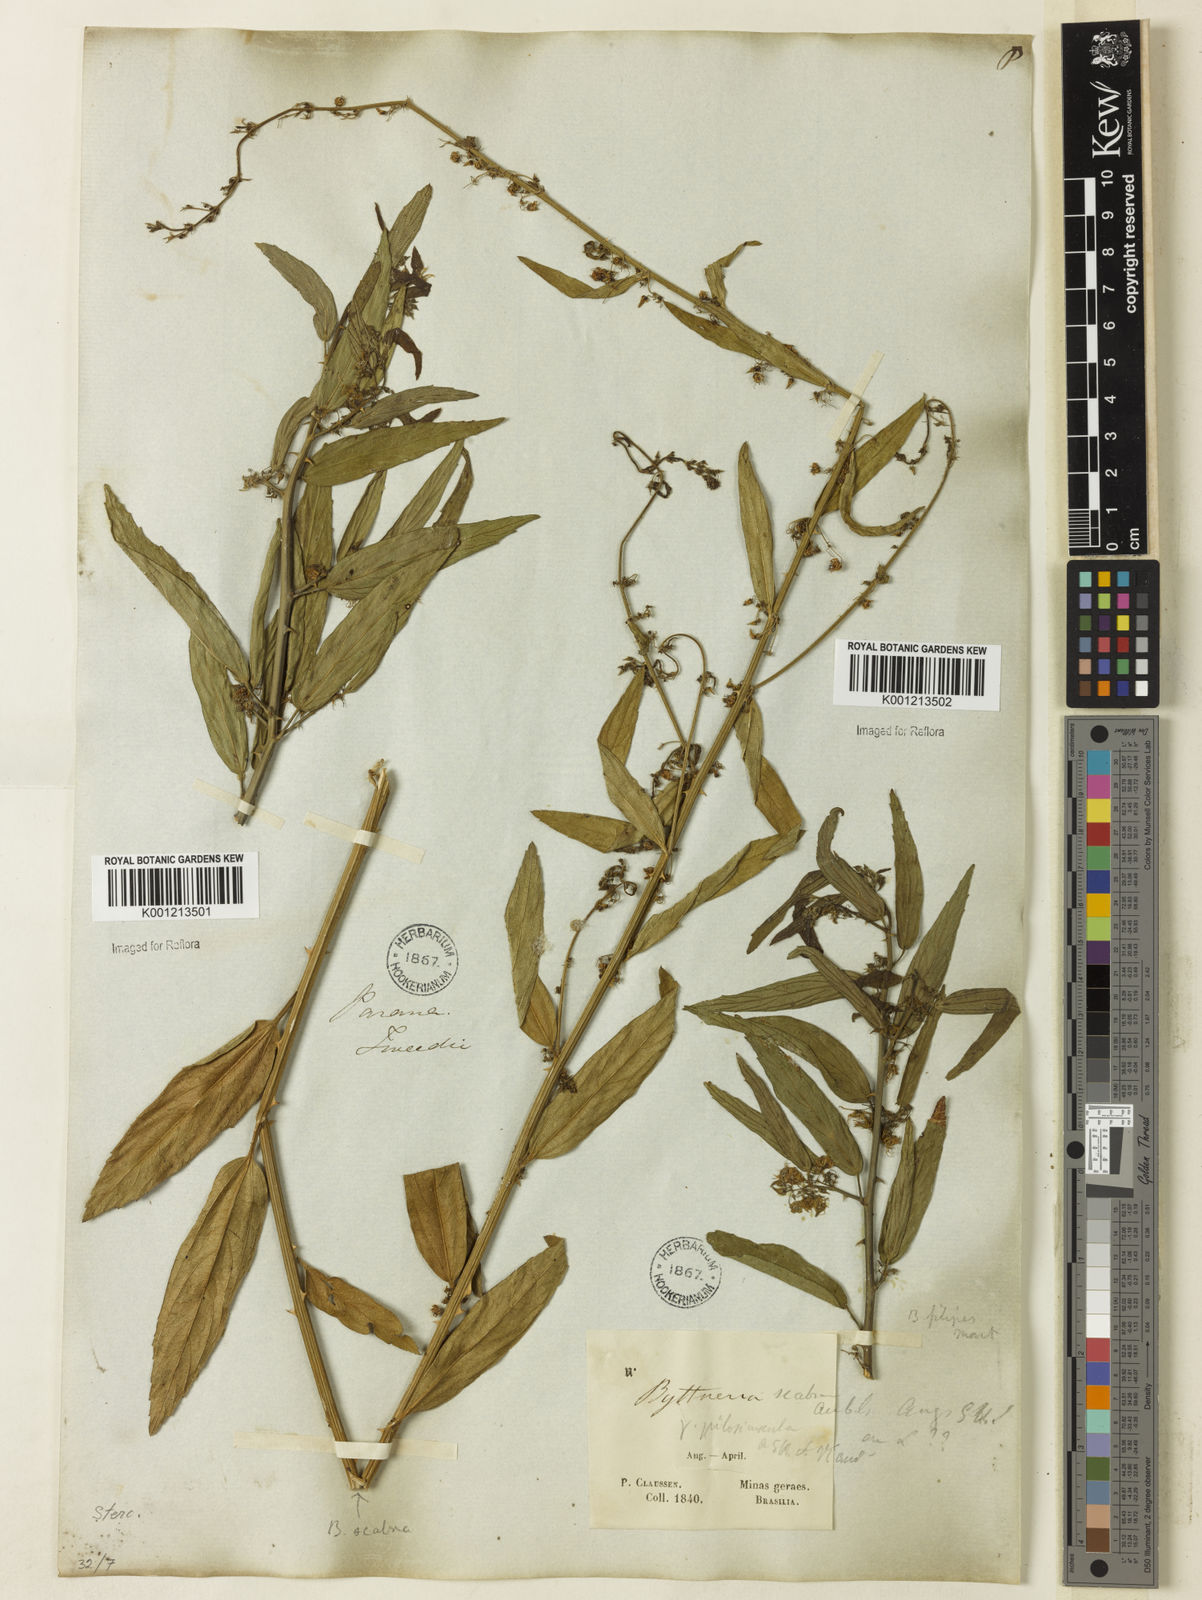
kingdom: Plantae
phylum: Tracheophyta
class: Magnoliopsida
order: Malvales
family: Malvaceae
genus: Byttneria
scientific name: Byttneria filipes
